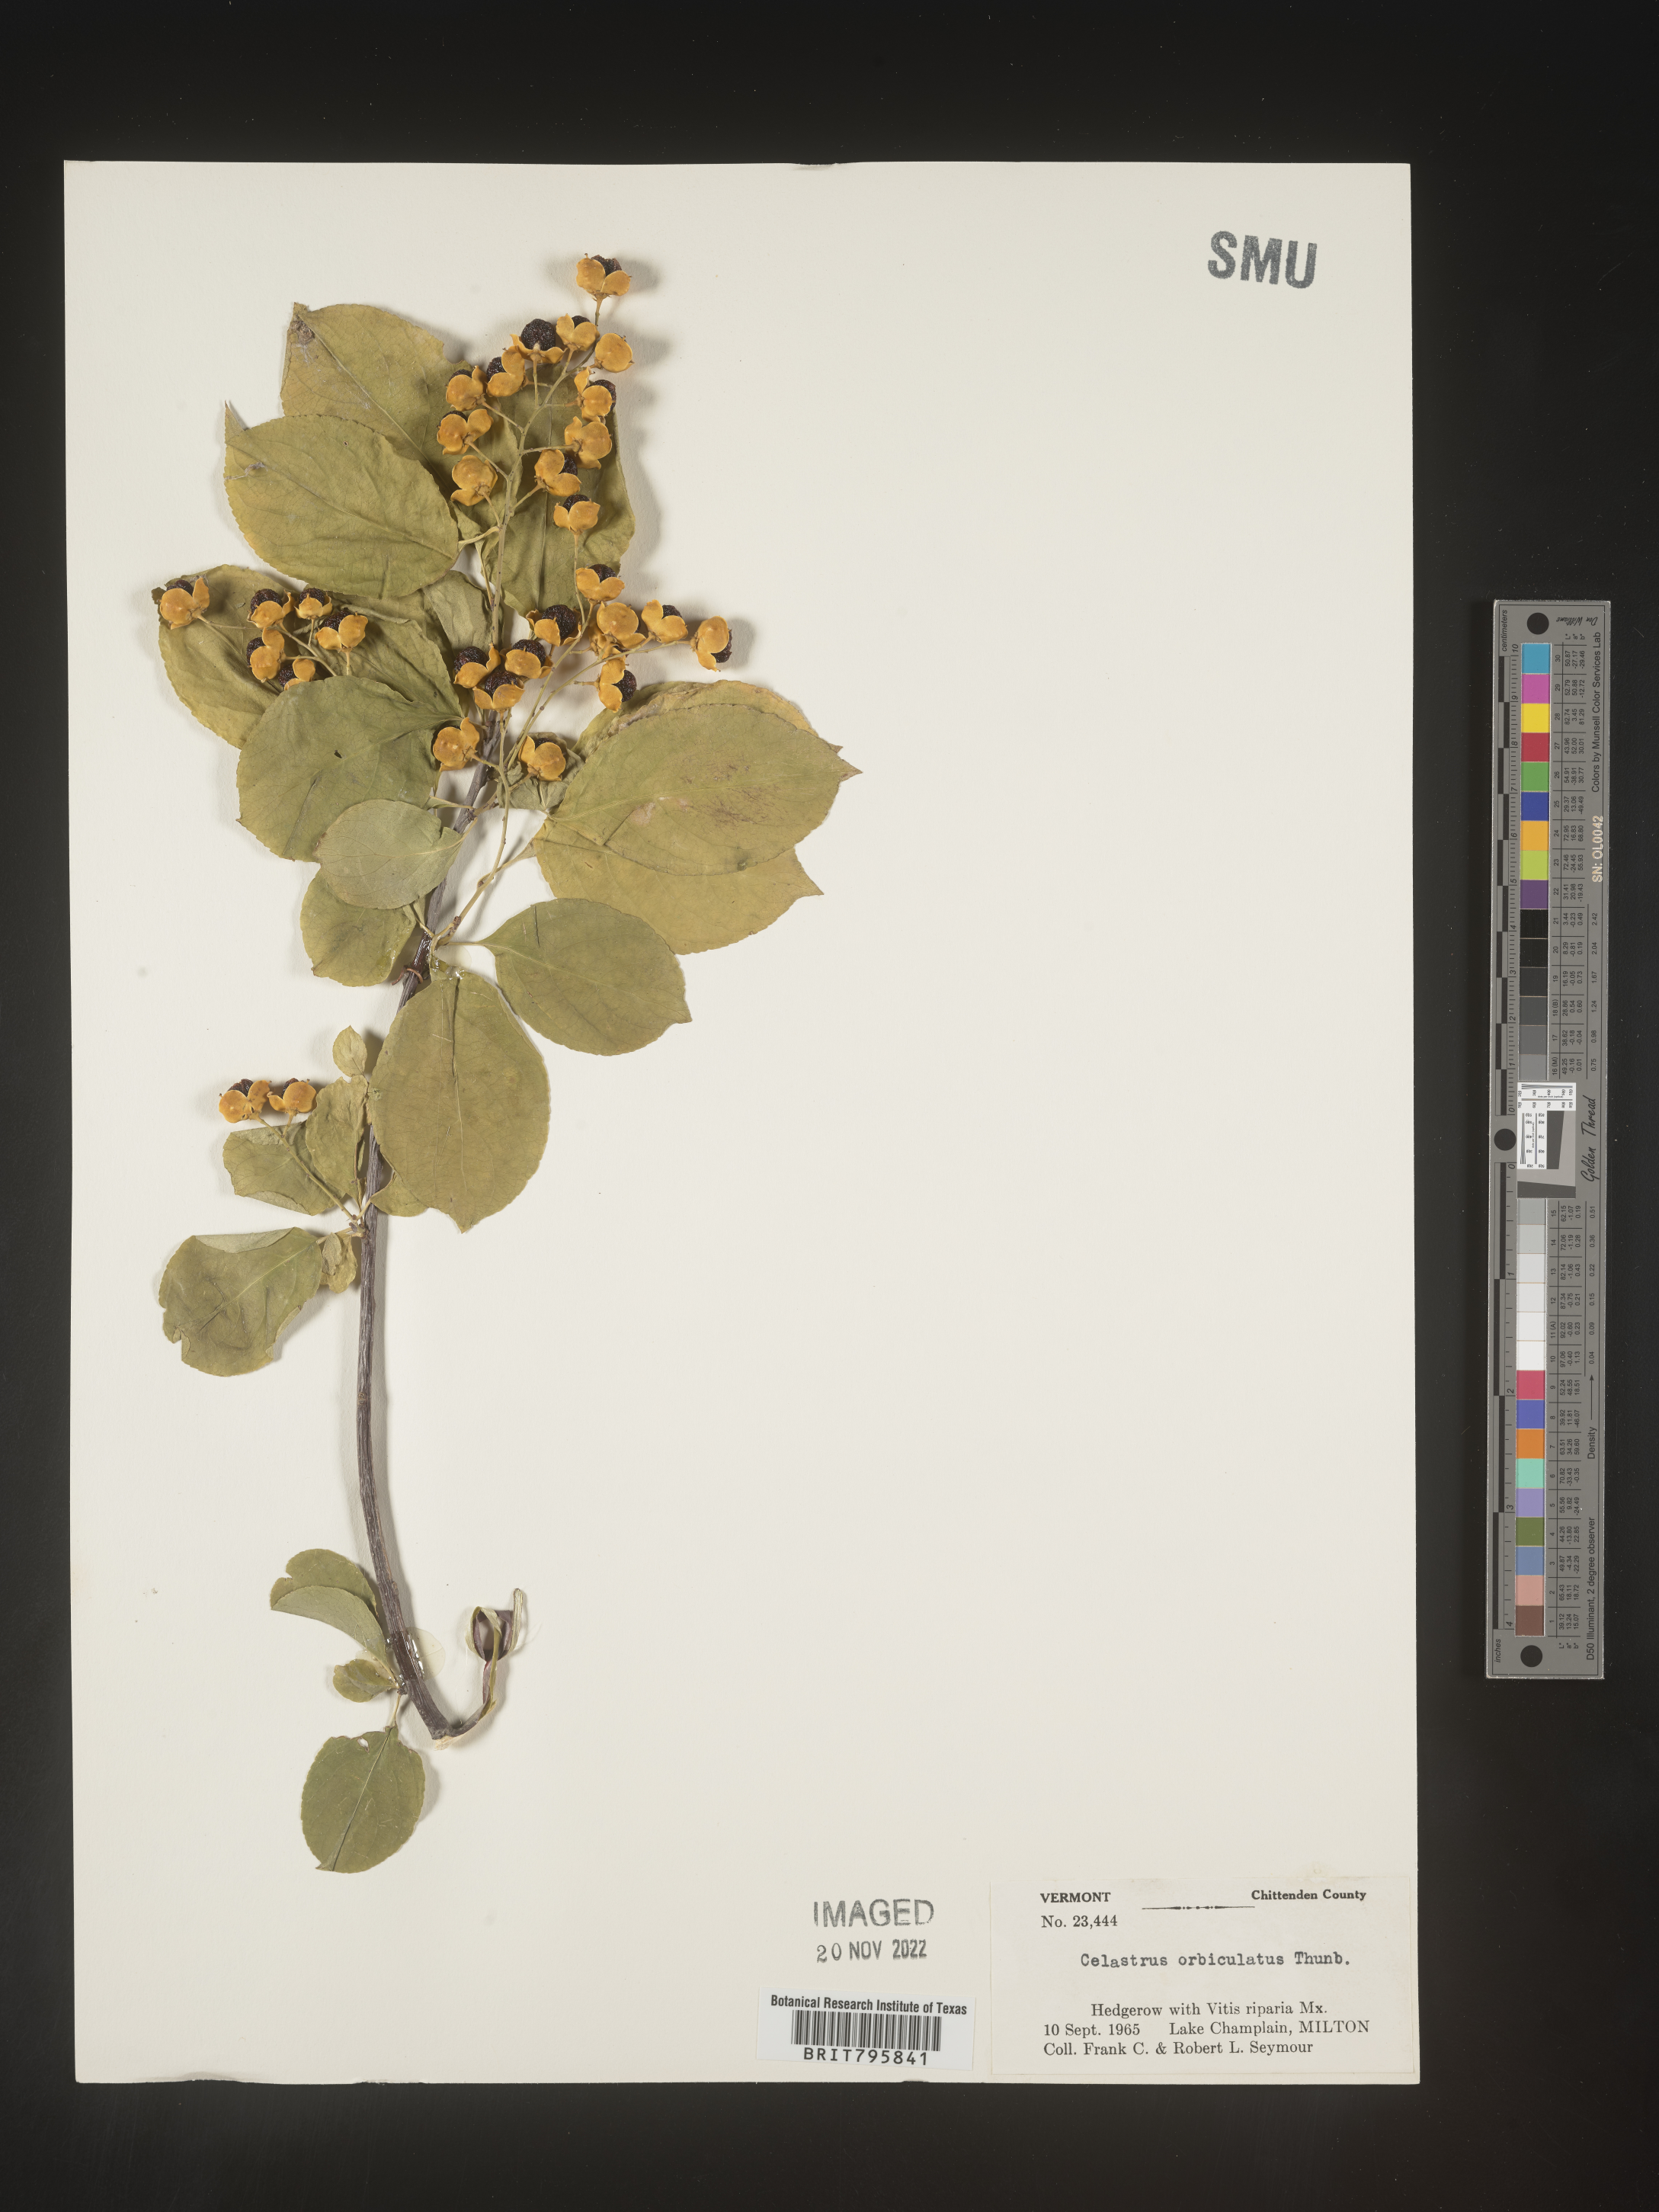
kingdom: Plantae
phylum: Tracheophyta
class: Magnoliopsida
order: Celastrales
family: Celastraceae
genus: Celastrus
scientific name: Celastrus
